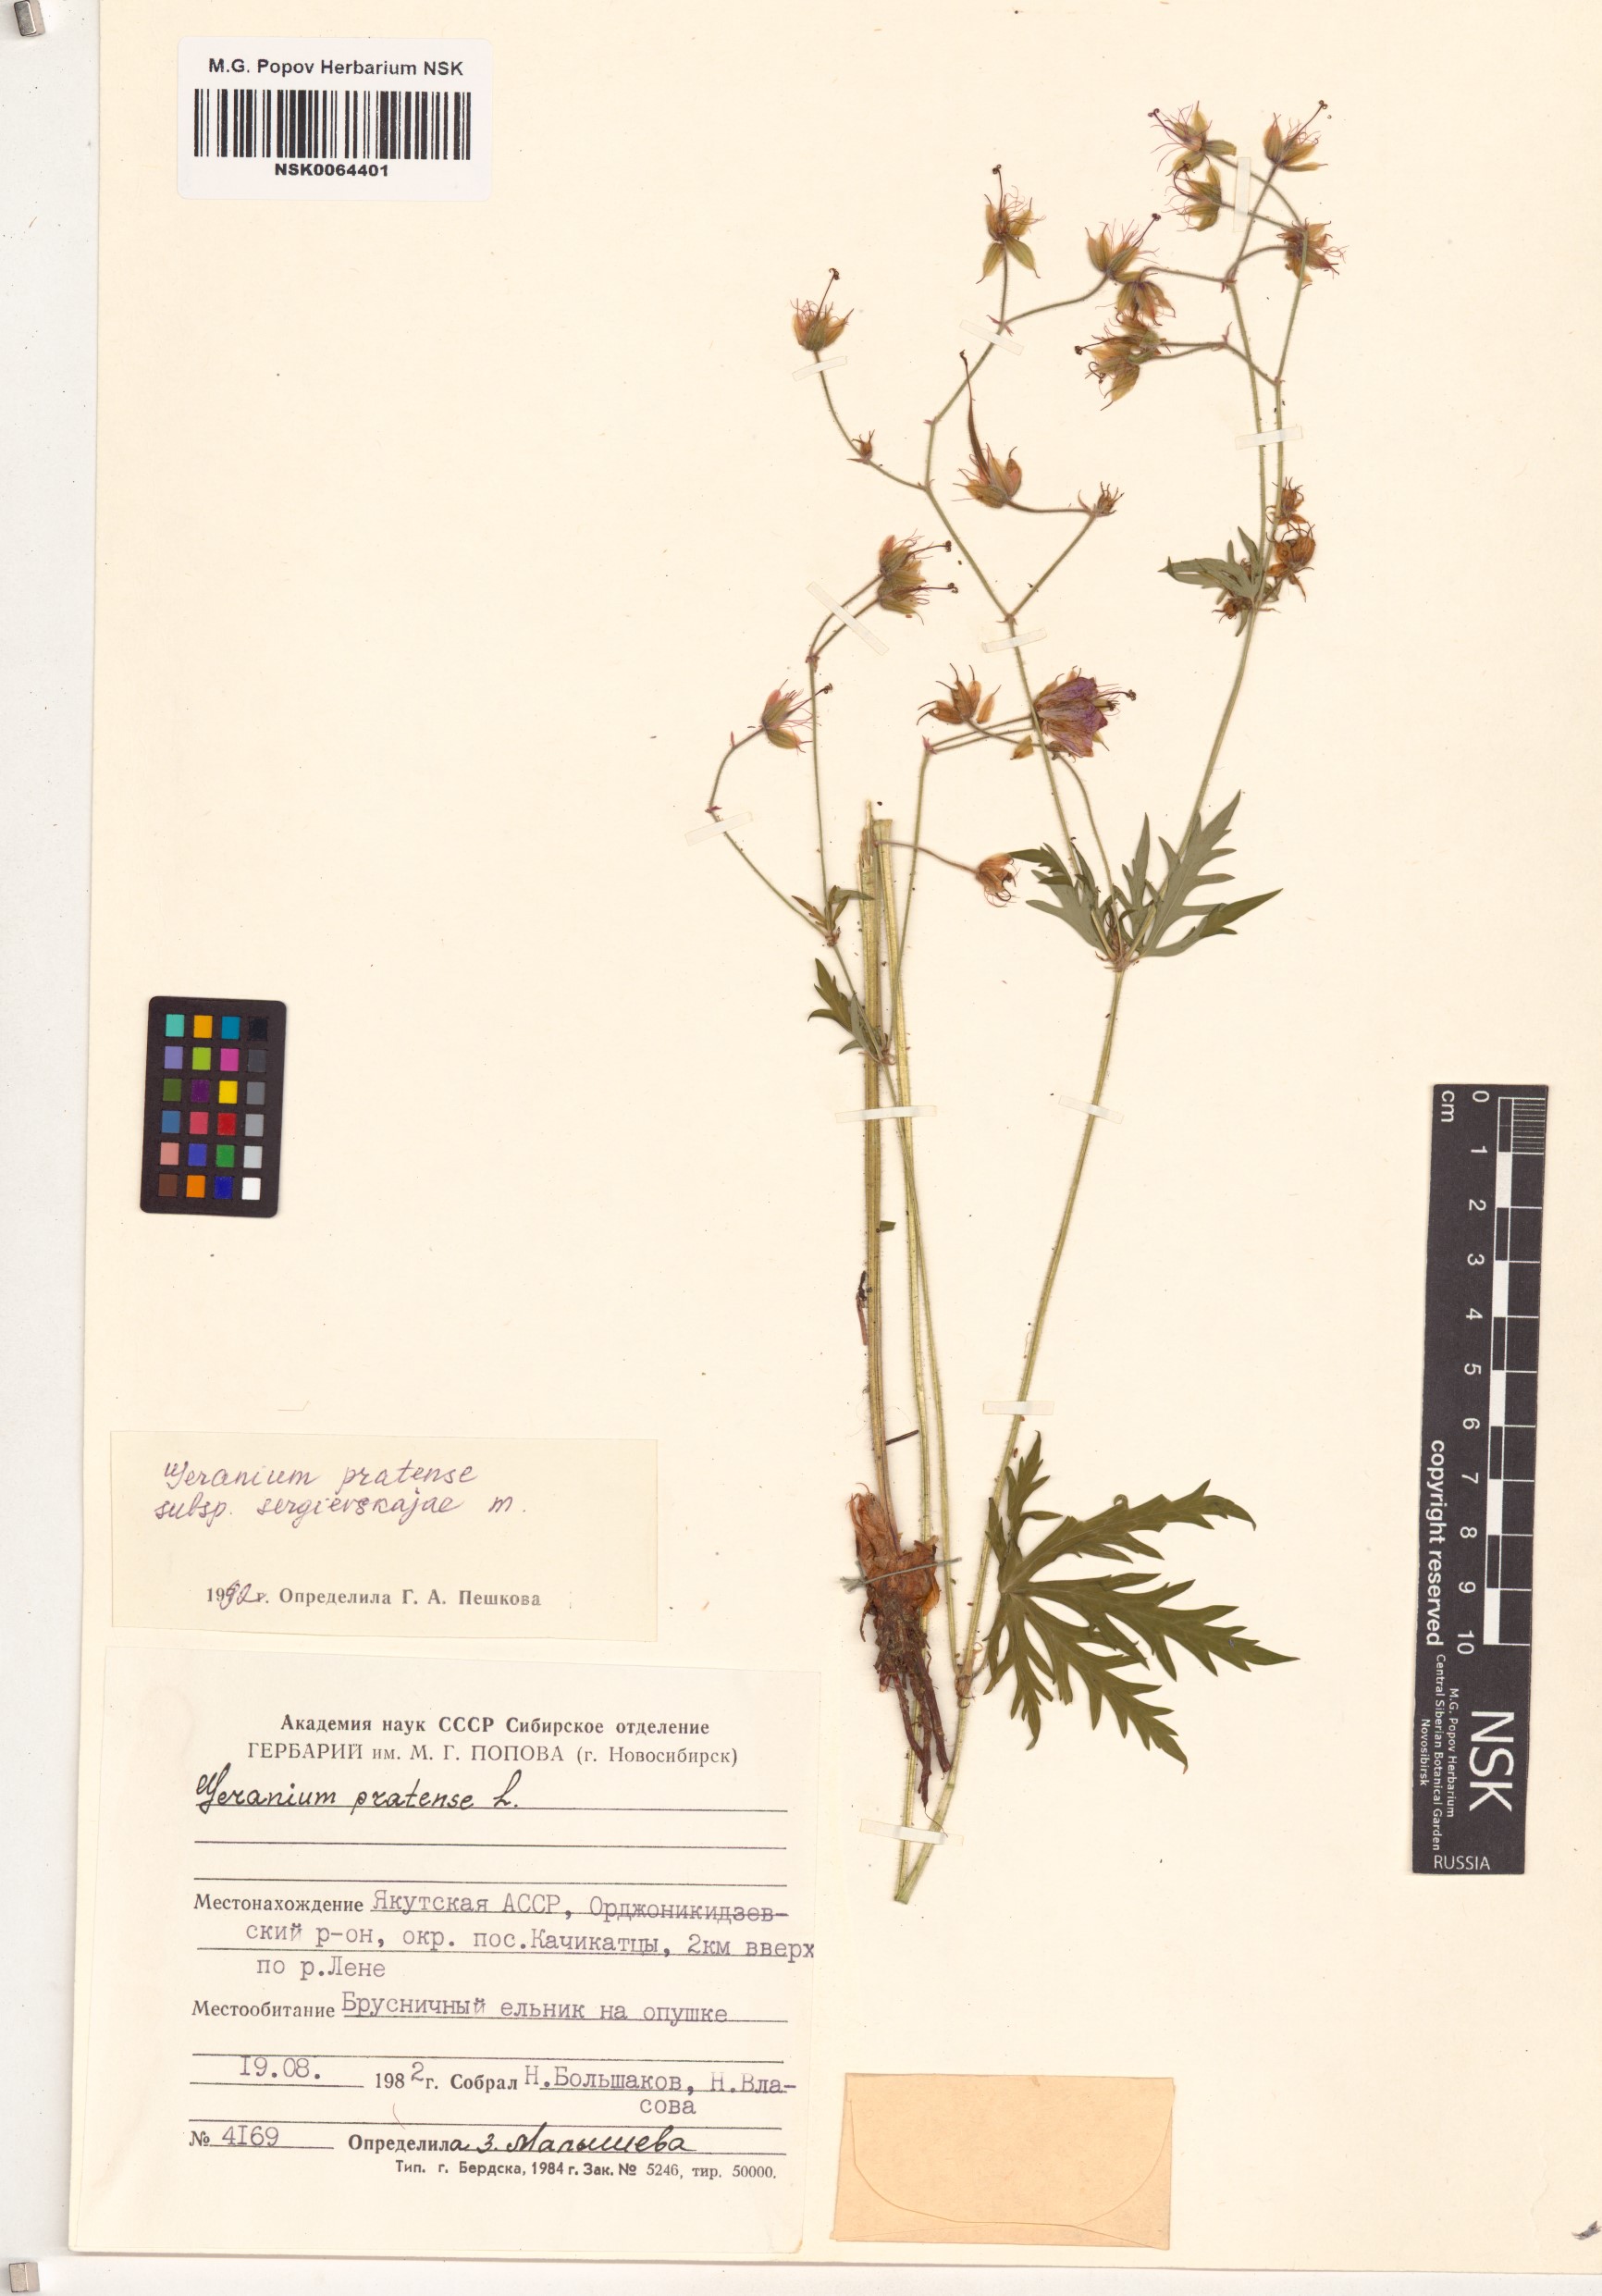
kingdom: Plantae
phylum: Tracheophyta
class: Magnoliopsida
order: Geraniales
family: Geraniaceae
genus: Geranium
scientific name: Geranium pratense
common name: Meadow crane's-bill
